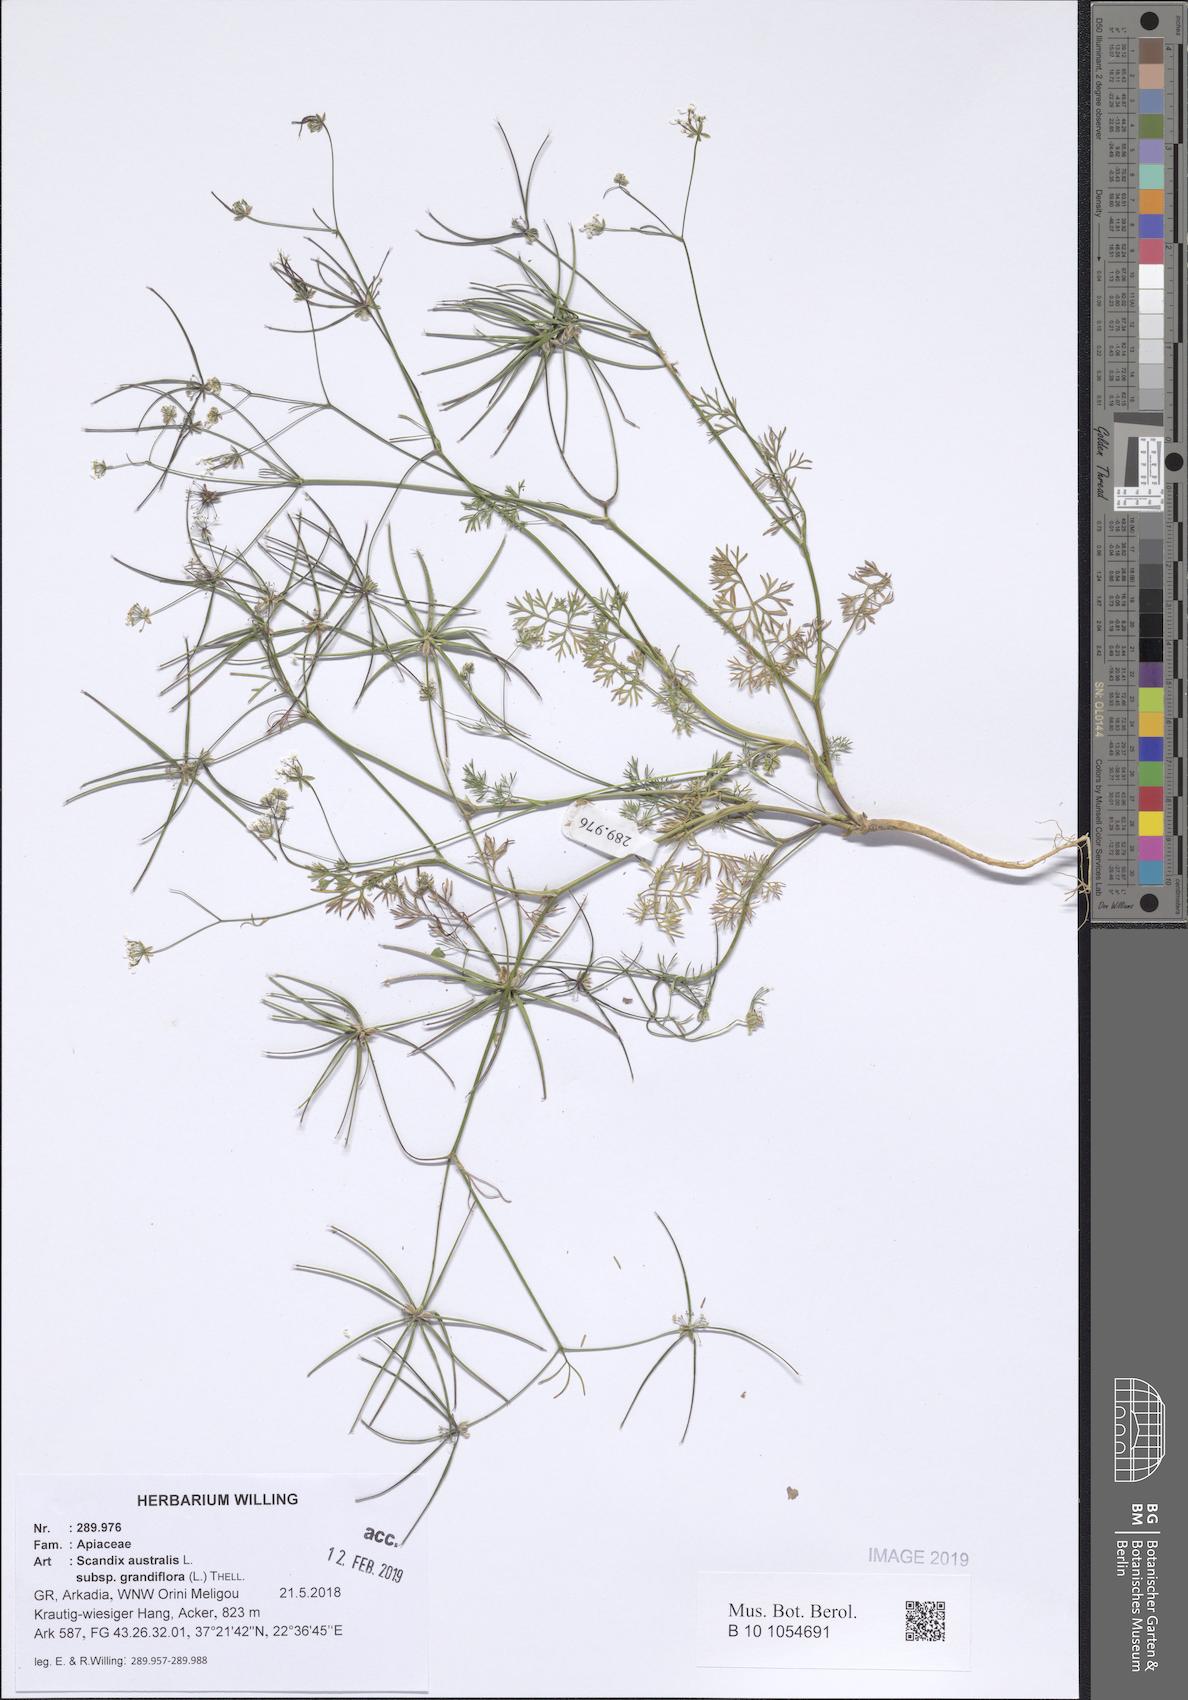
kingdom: Plantae
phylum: Tracheophyta
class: Magnoliopsida
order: Apiales
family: Apiaceae
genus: Scandix
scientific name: Scandix australis
